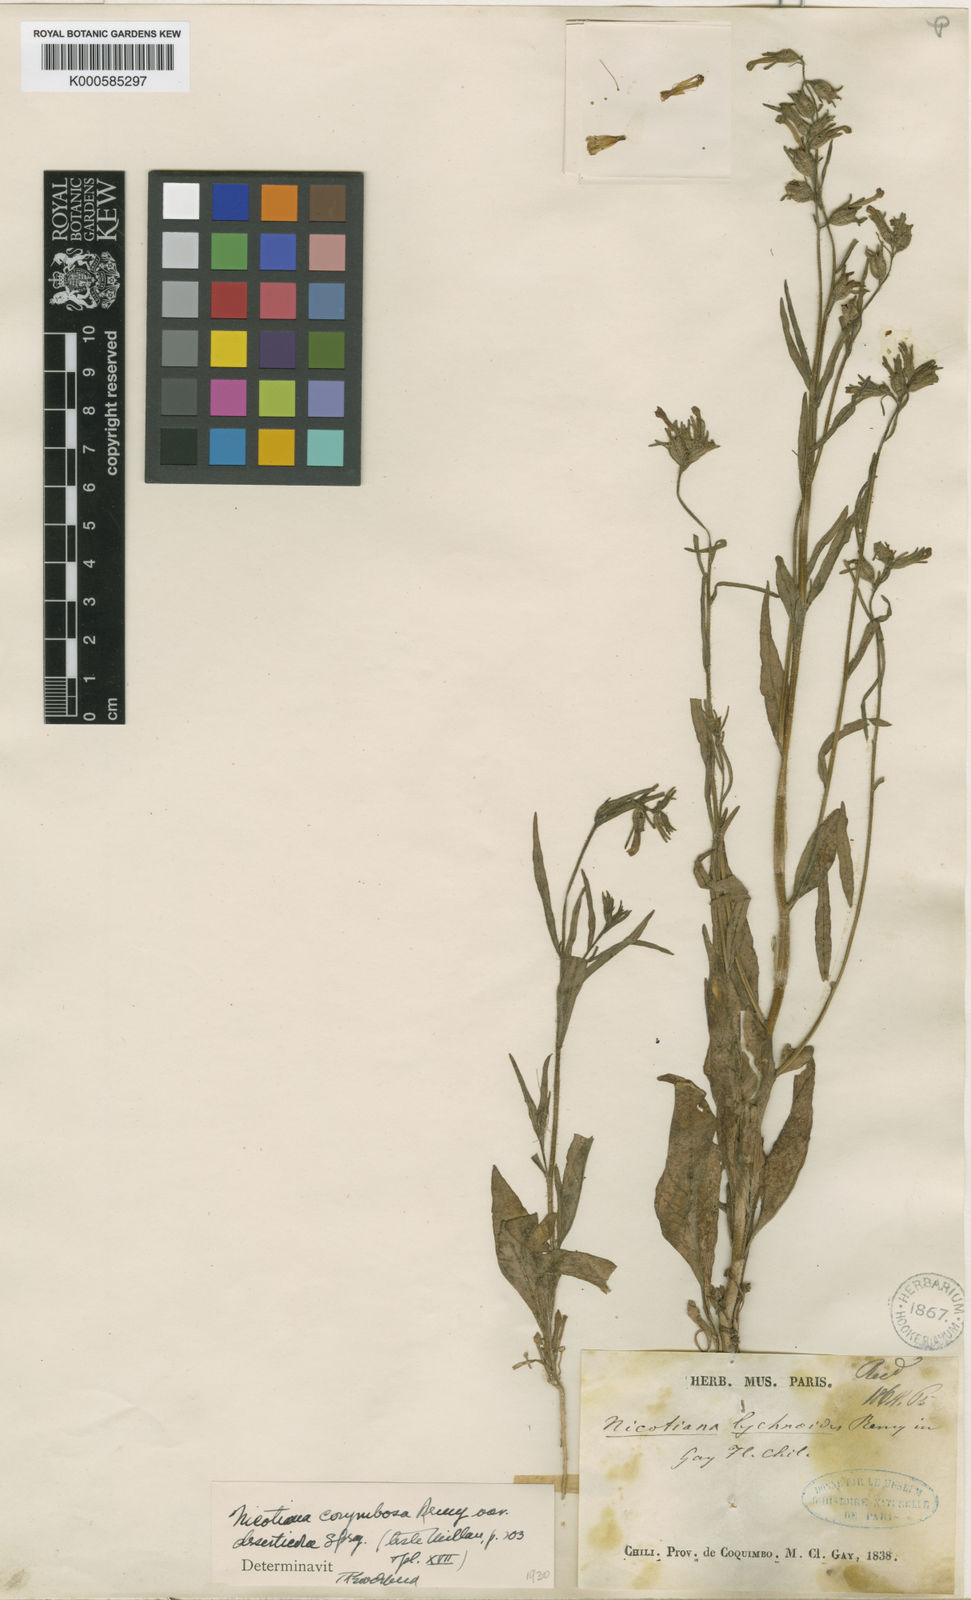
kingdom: Plantae
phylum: Tracheophyta
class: Magnoliopsida
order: Solanales
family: Solanaceae
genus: Nicotiana
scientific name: Nicotiana
